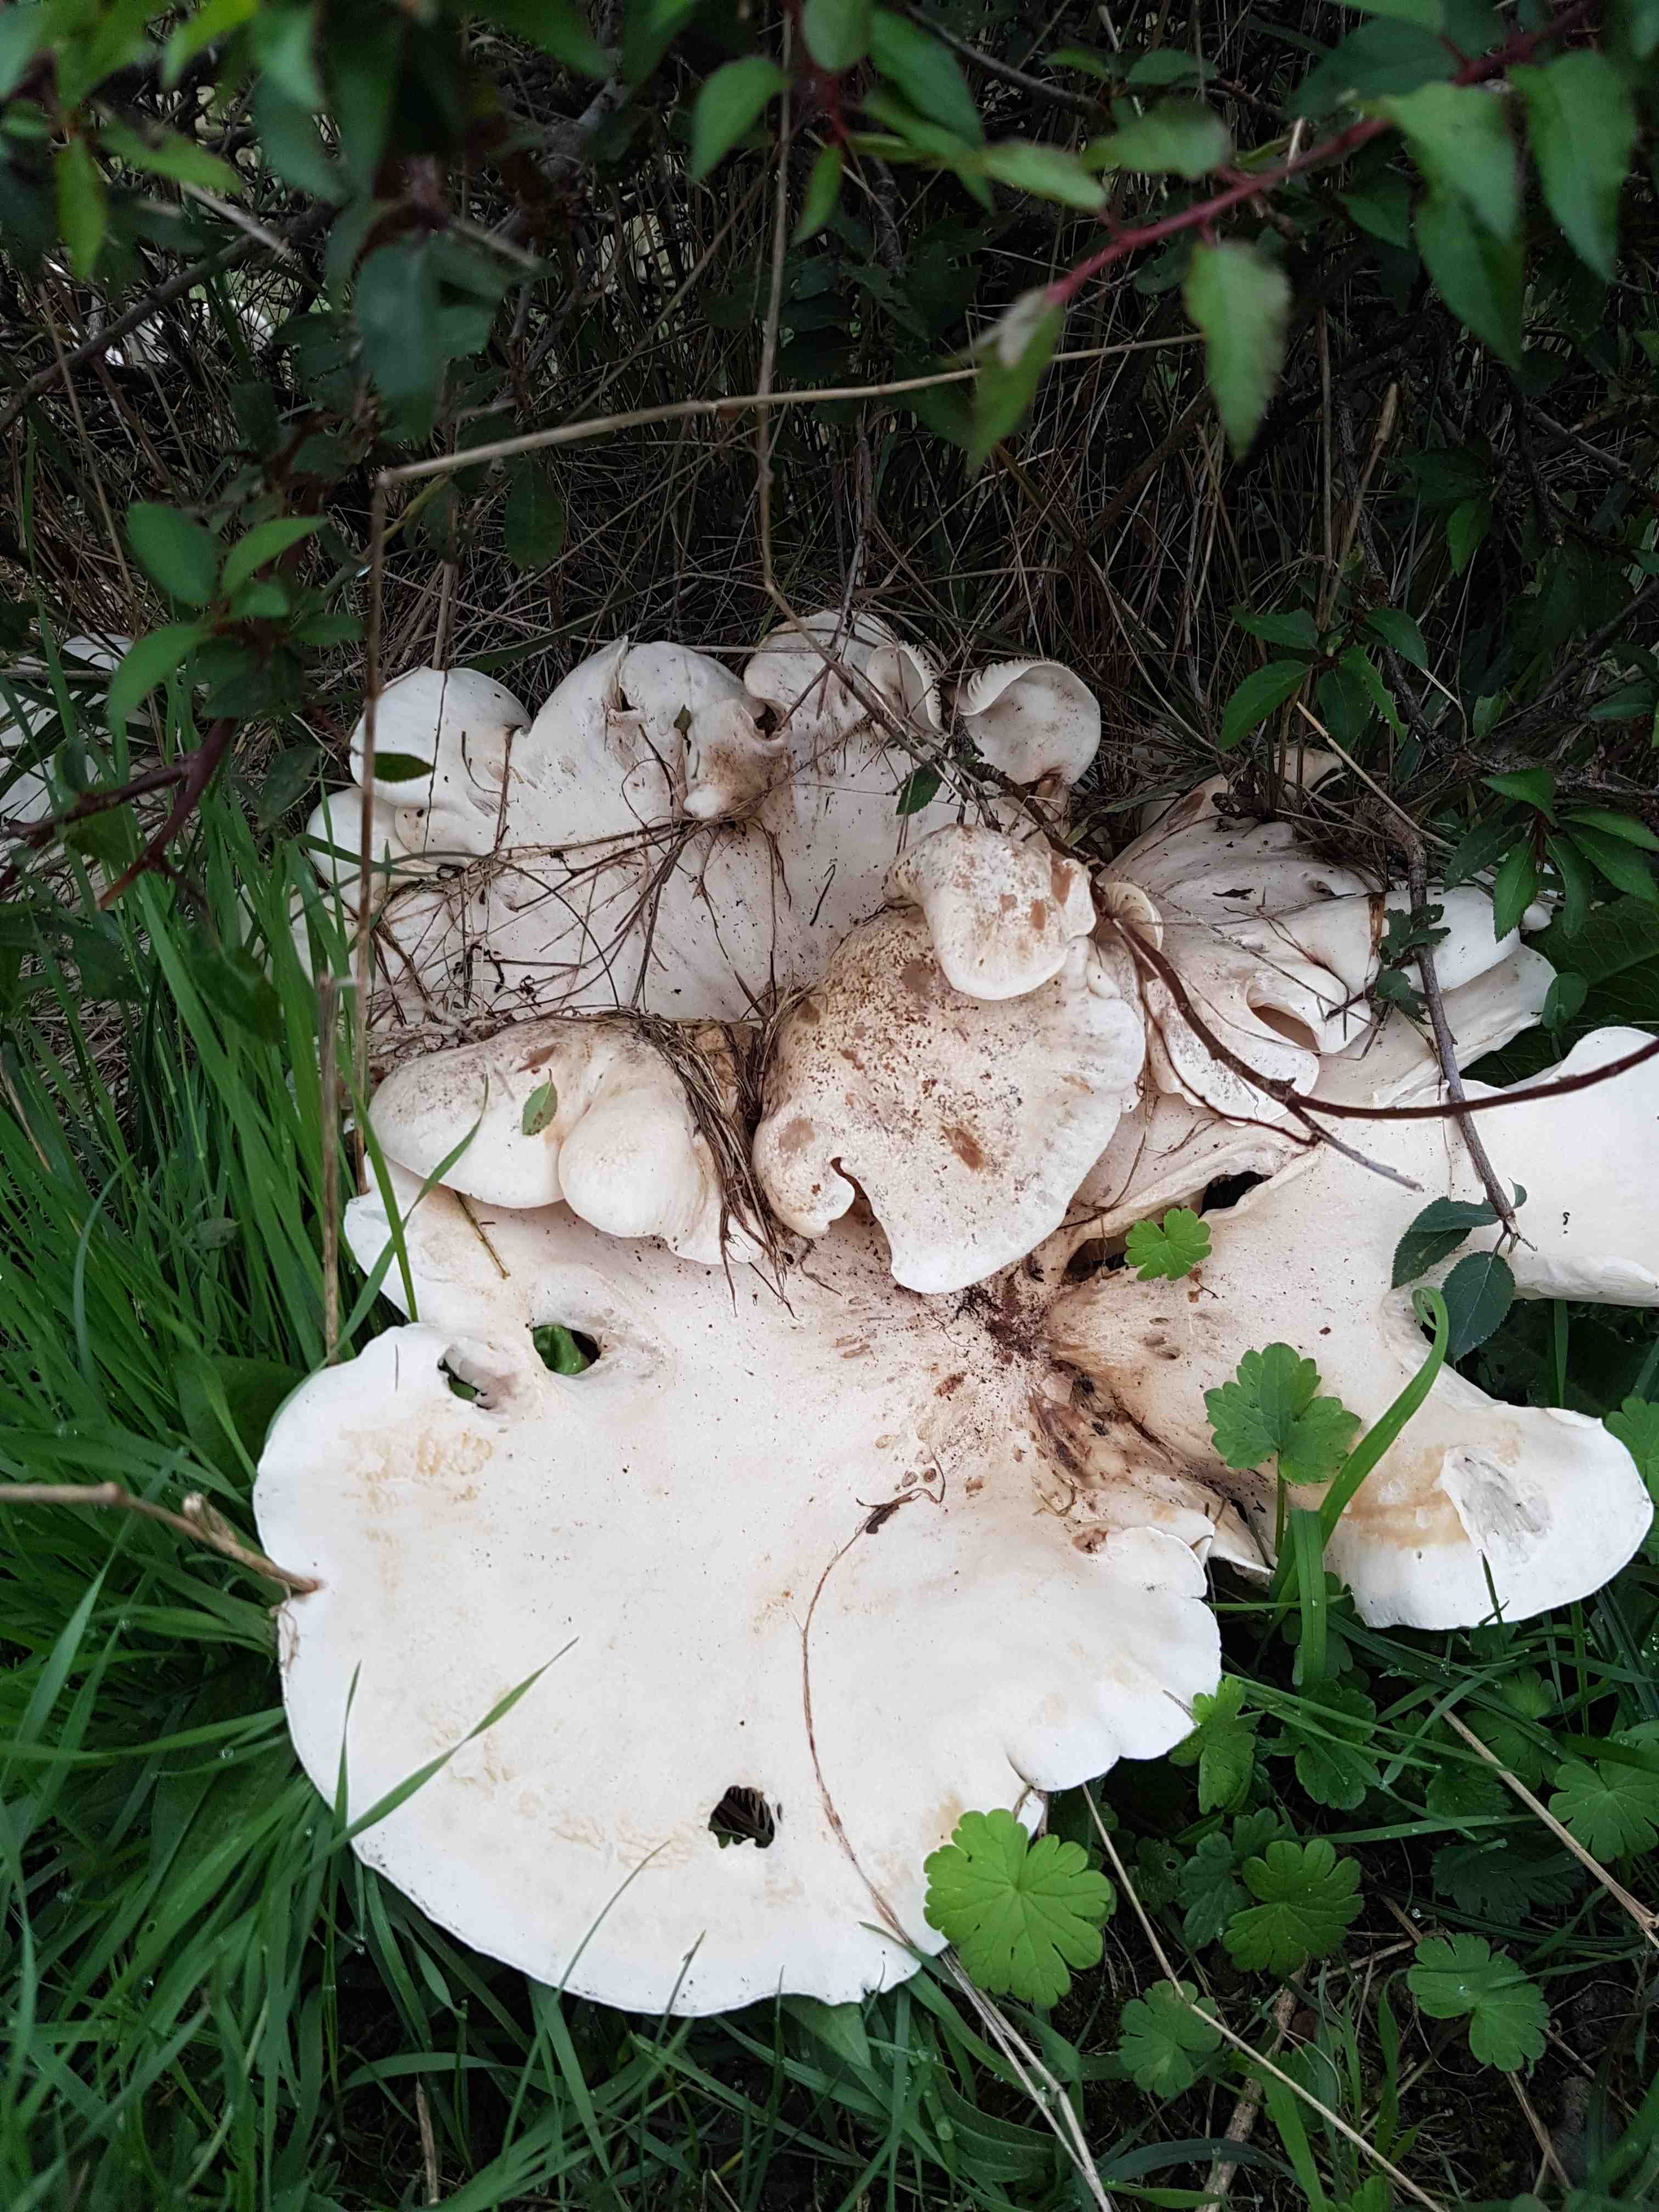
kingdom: Fungi
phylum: Basidiomycota
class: Agaricomycetes
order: Agaricales
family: Tricholomataceae
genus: Aspropaxillus
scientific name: Aspropaxillus giganteus
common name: kæmpe-tragtridderhat
